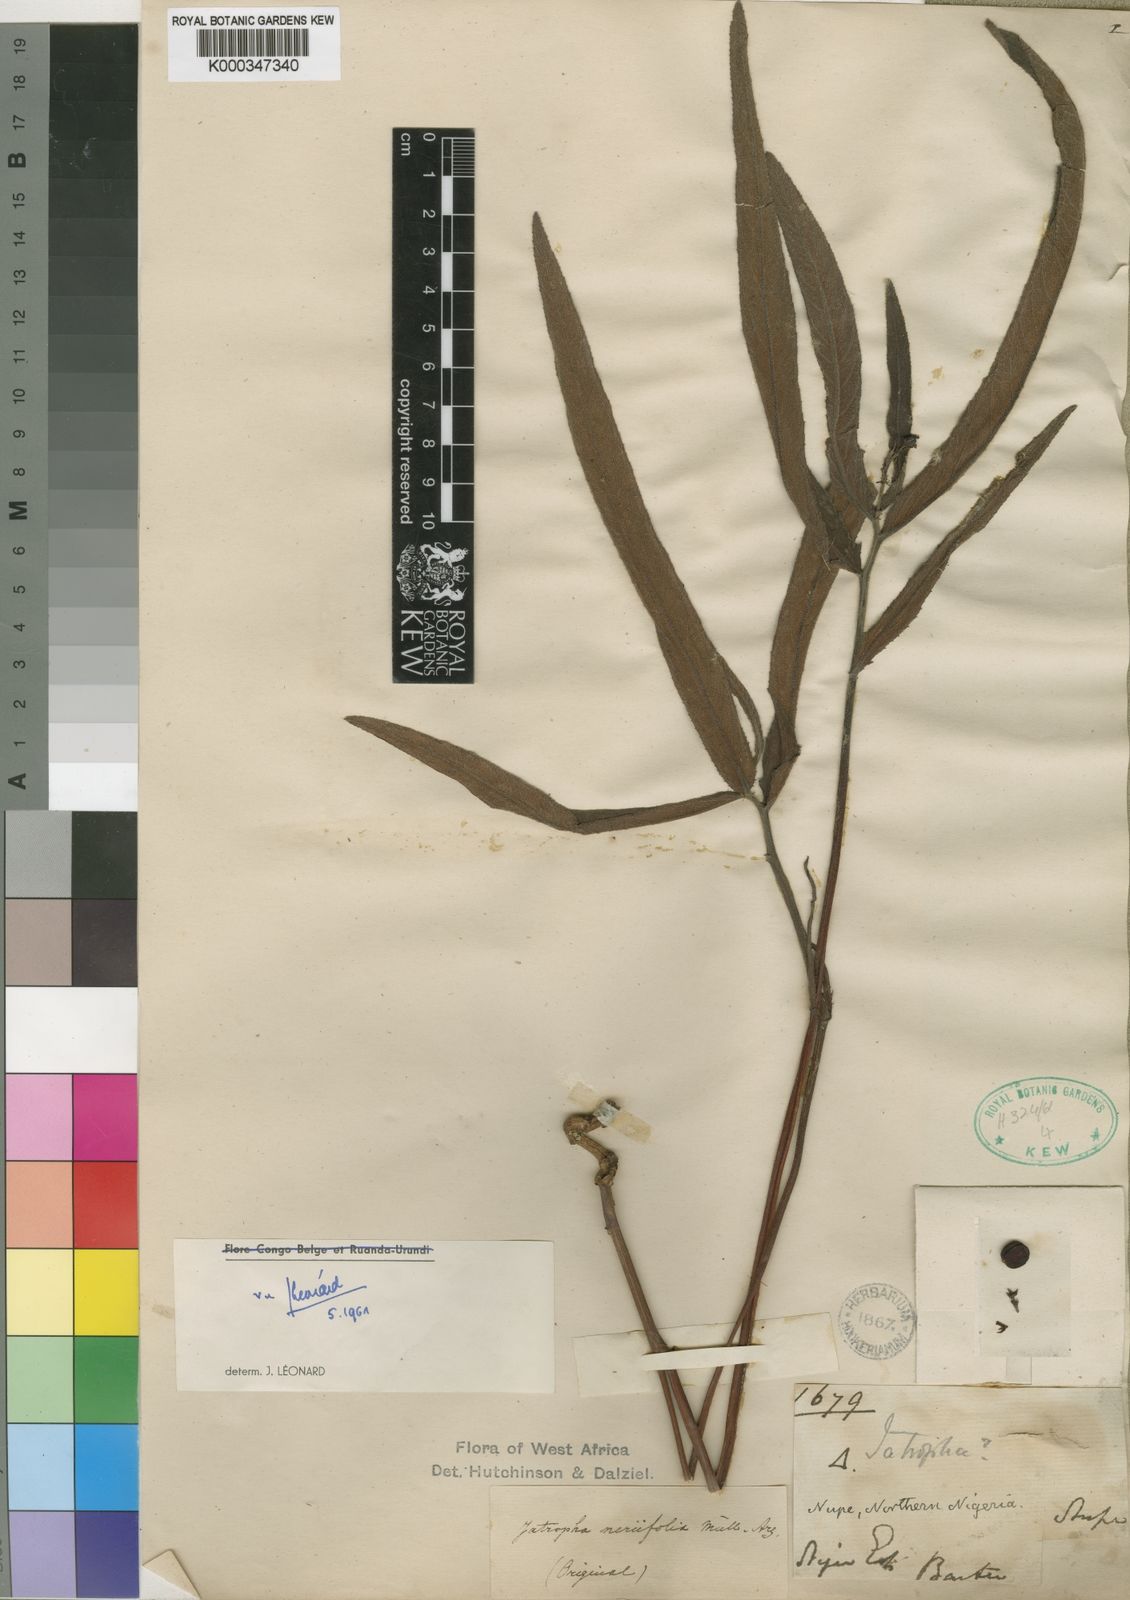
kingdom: Plantae
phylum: Tracheophyta
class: Magnoliopsida
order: Malpighiales
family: Euphorbiaceae
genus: Jatropha
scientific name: Jatropha
